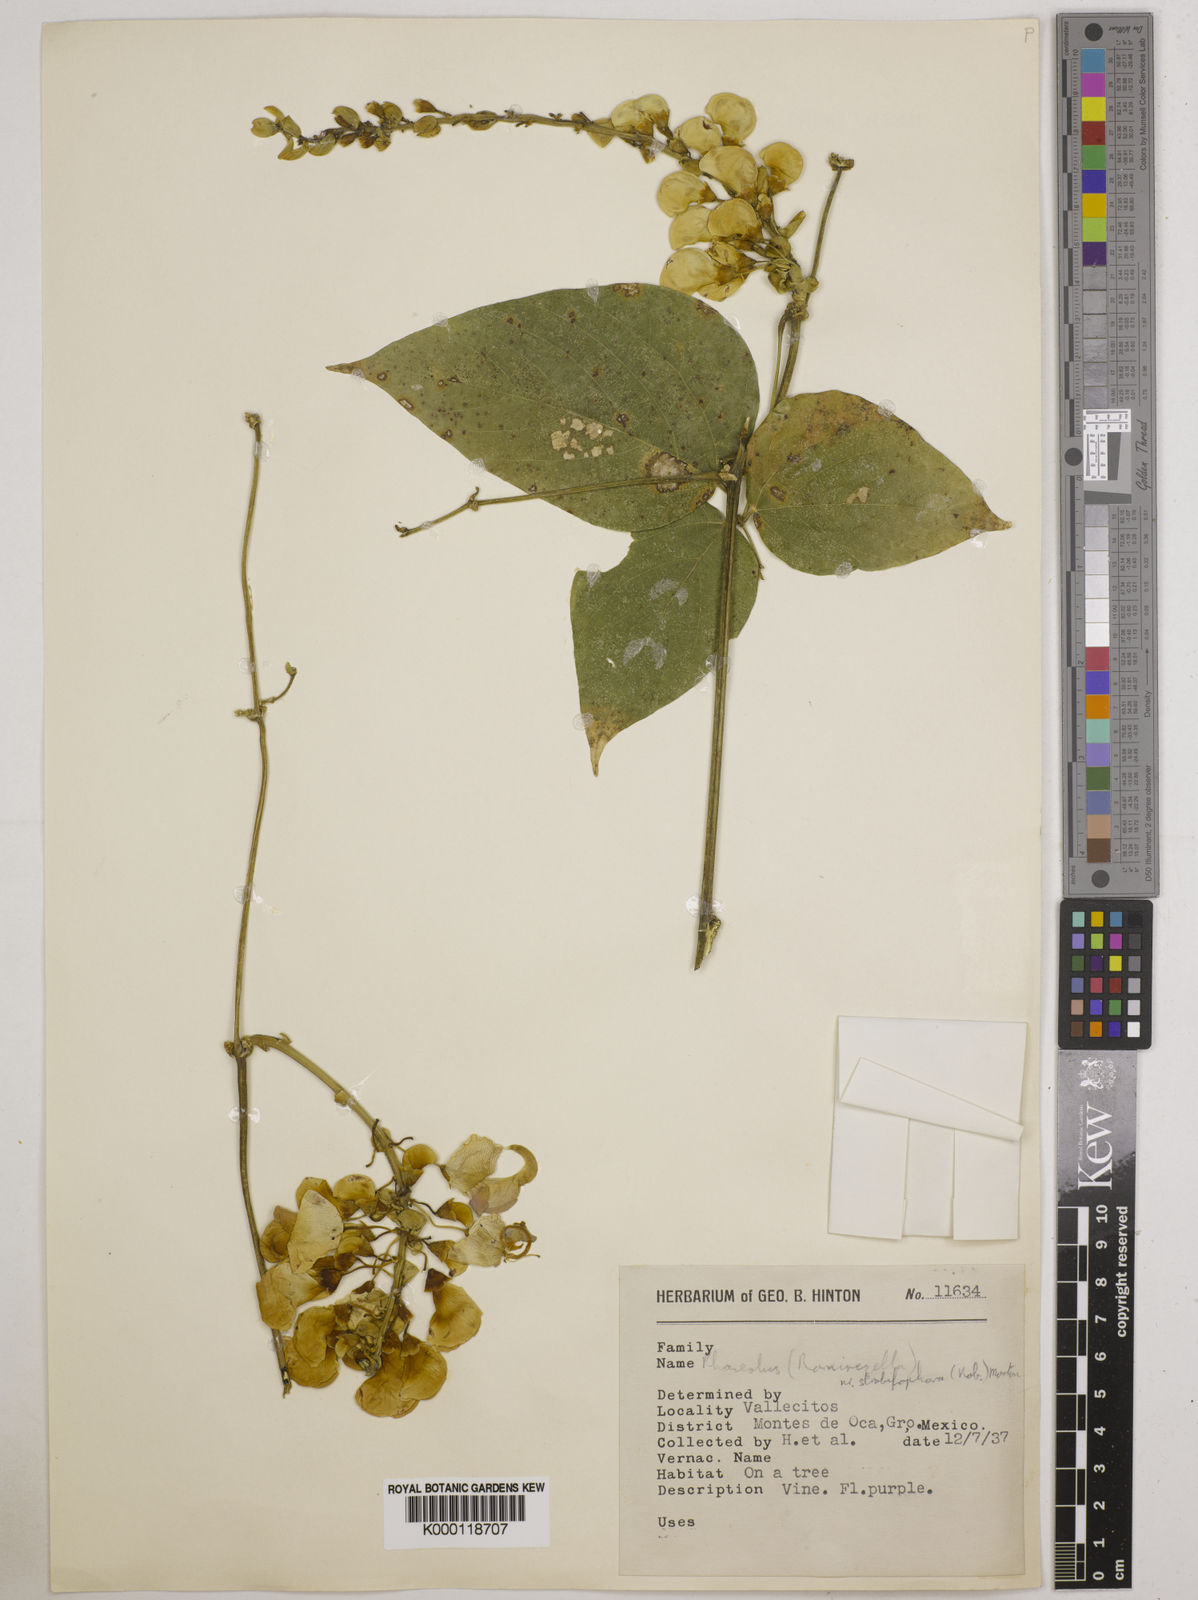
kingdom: Plantae
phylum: Tracheophyta
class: Magnoliopsida
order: Fabales
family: Fabaceae
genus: Ramirezella
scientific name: Ramirezella strobilophora
